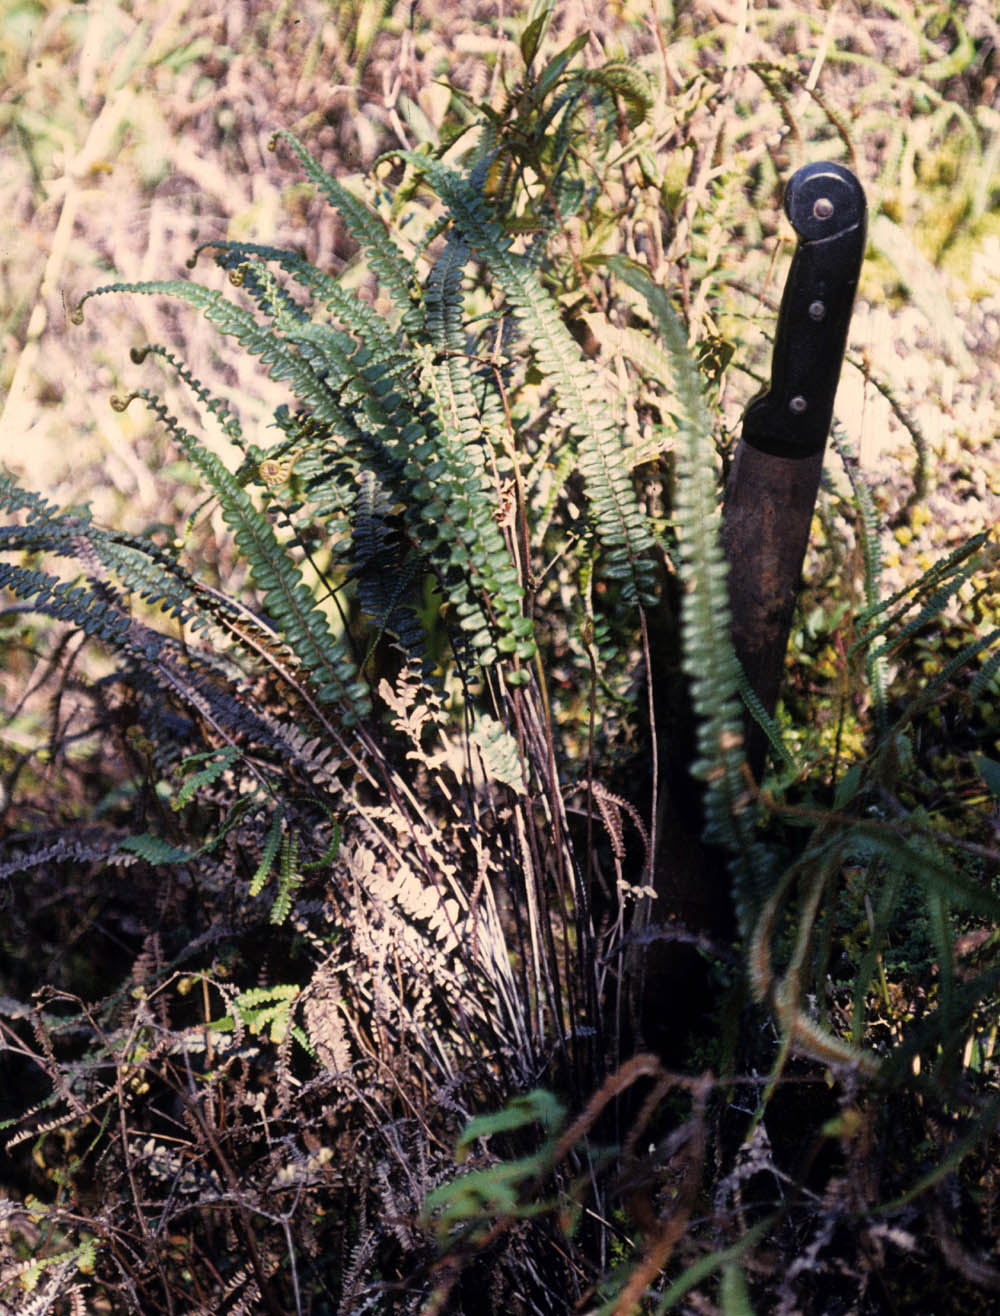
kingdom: Plantae
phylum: Tracheophyta
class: Polypodiopsida
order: Polypodiales
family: Pteridaceae
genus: Jamesonia
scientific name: Jamesonia verticalis
